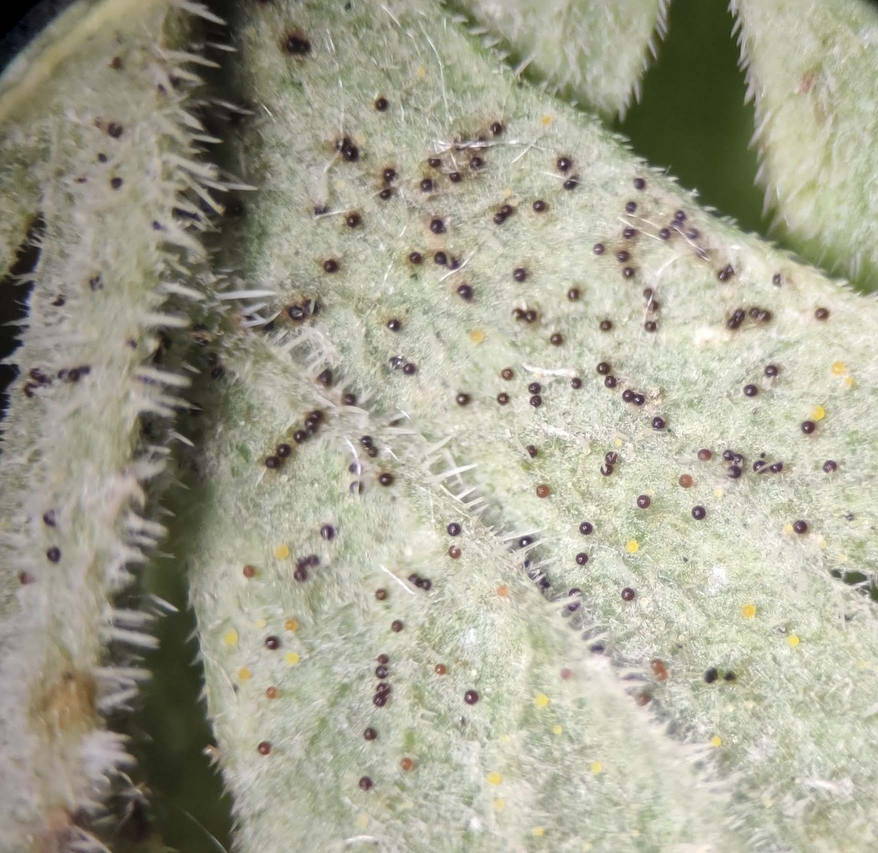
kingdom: Fungi
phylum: Ascomycota
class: Leotiomycetes
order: Helotiales
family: Erysiphaceae
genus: Erysiphe
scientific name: Erysiphe heraclei
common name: skærmplante-meldug
